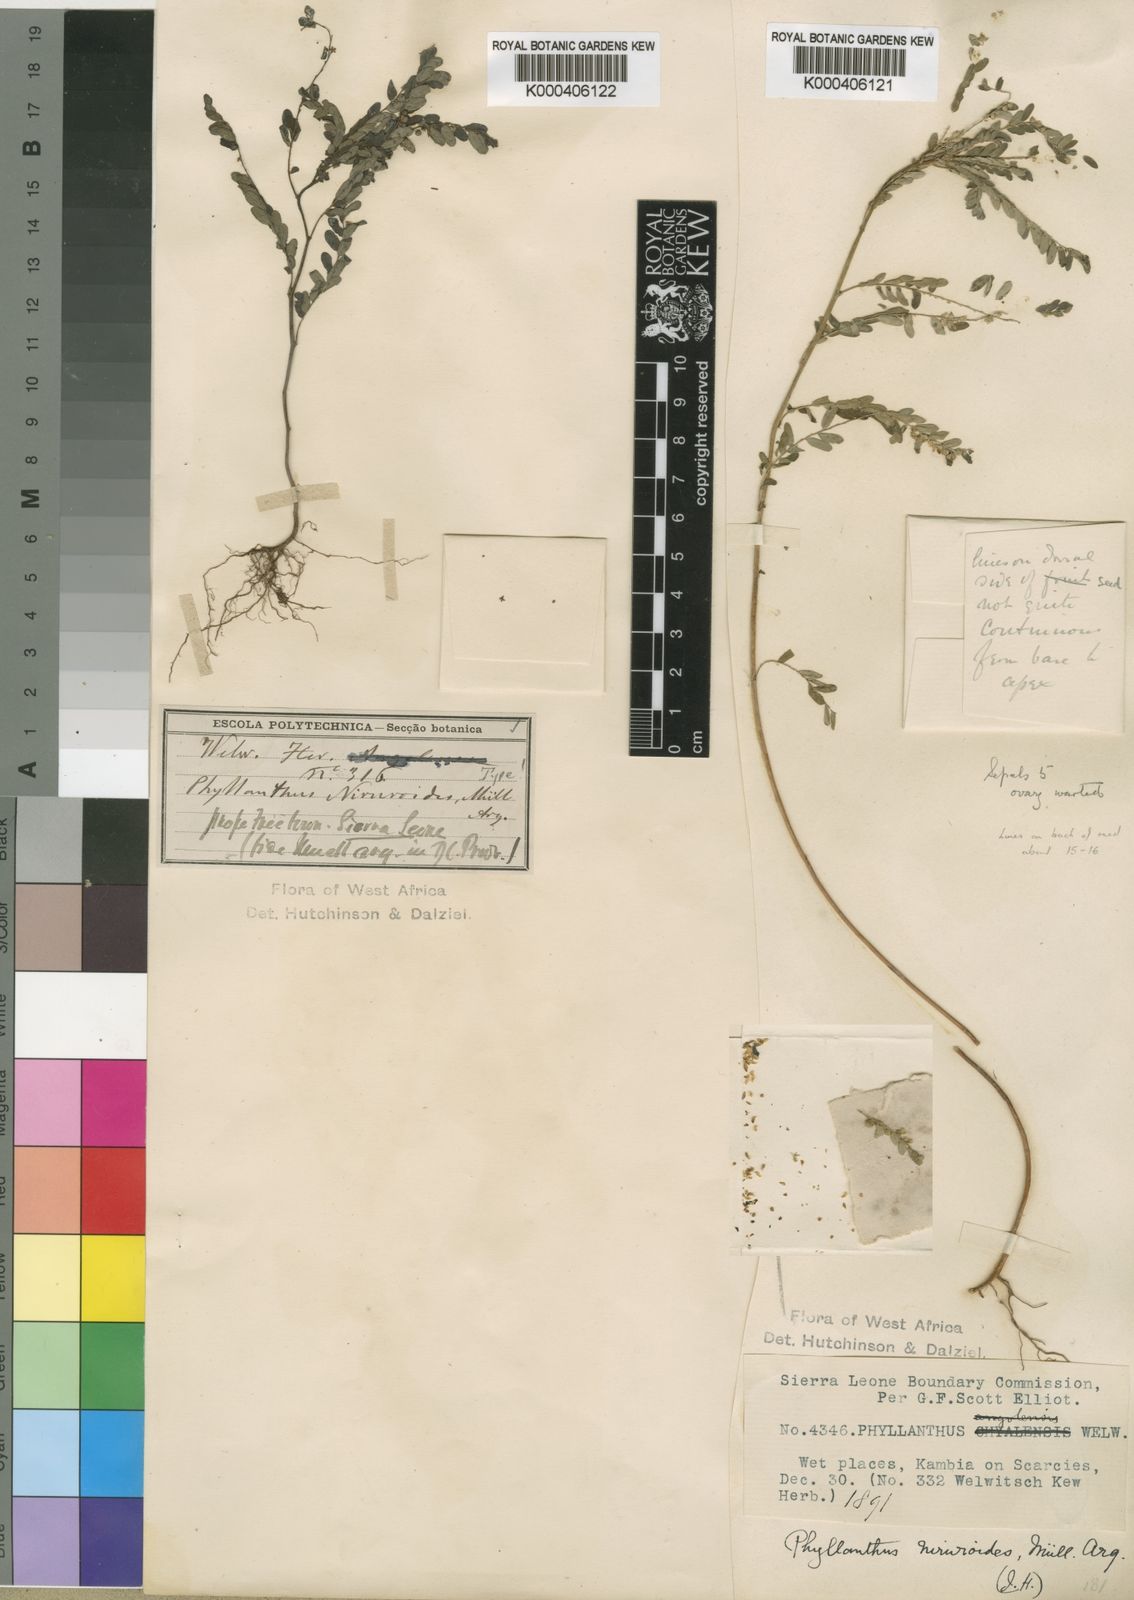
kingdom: Plantae
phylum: Tracheophyta
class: Magnoliopsida
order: Malpighiales
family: Phyllanthaceae
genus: Phyllanthus
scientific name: Phyllanthus
